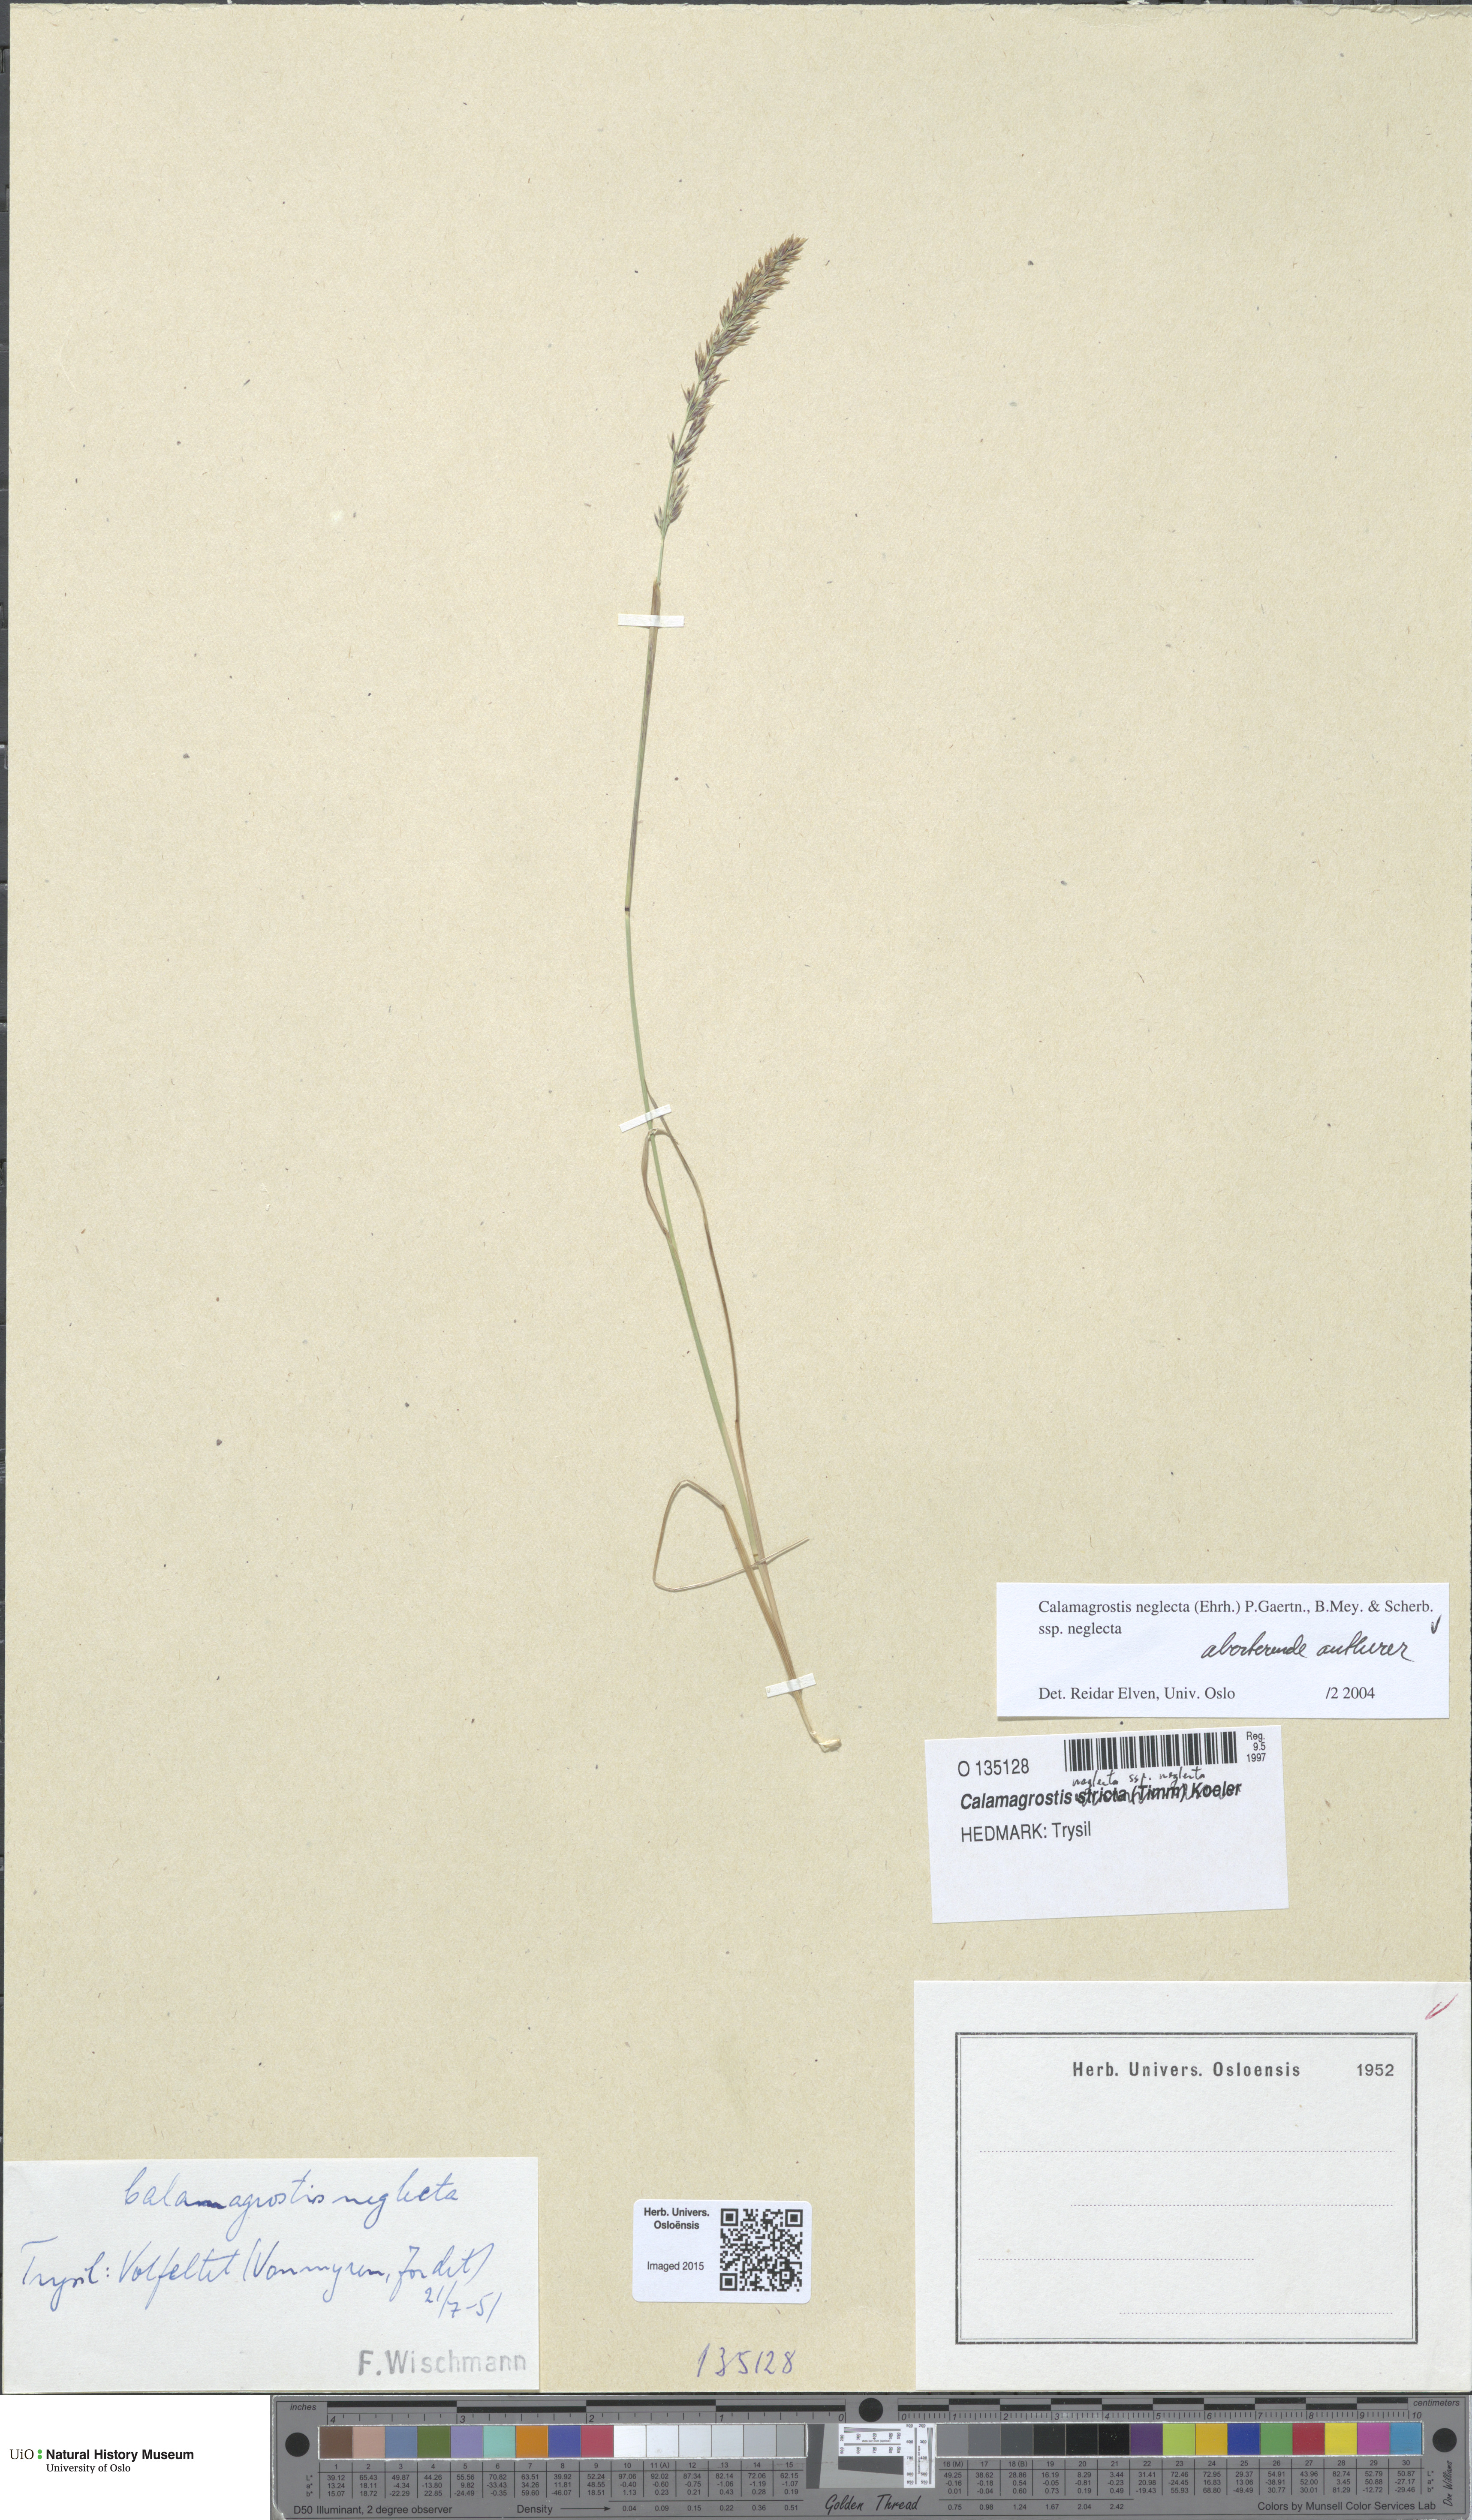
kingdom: Plantae
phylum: Tracheophyta
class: Liliopsida
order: Poales
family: Poaceae
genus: Achnatherum
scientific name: Achnatherum calamagrostis
